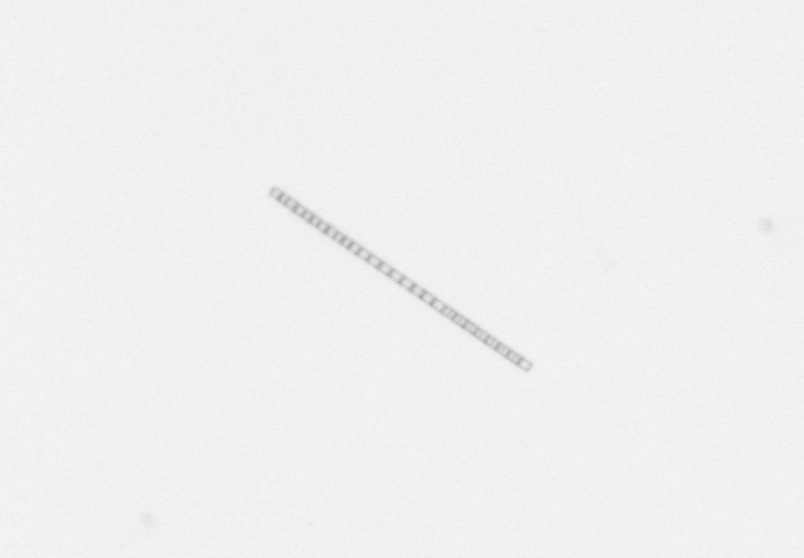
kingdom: Chromista
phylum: Ochrophyta
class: Bacillariophyceae
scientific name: Bacillariophyceae
